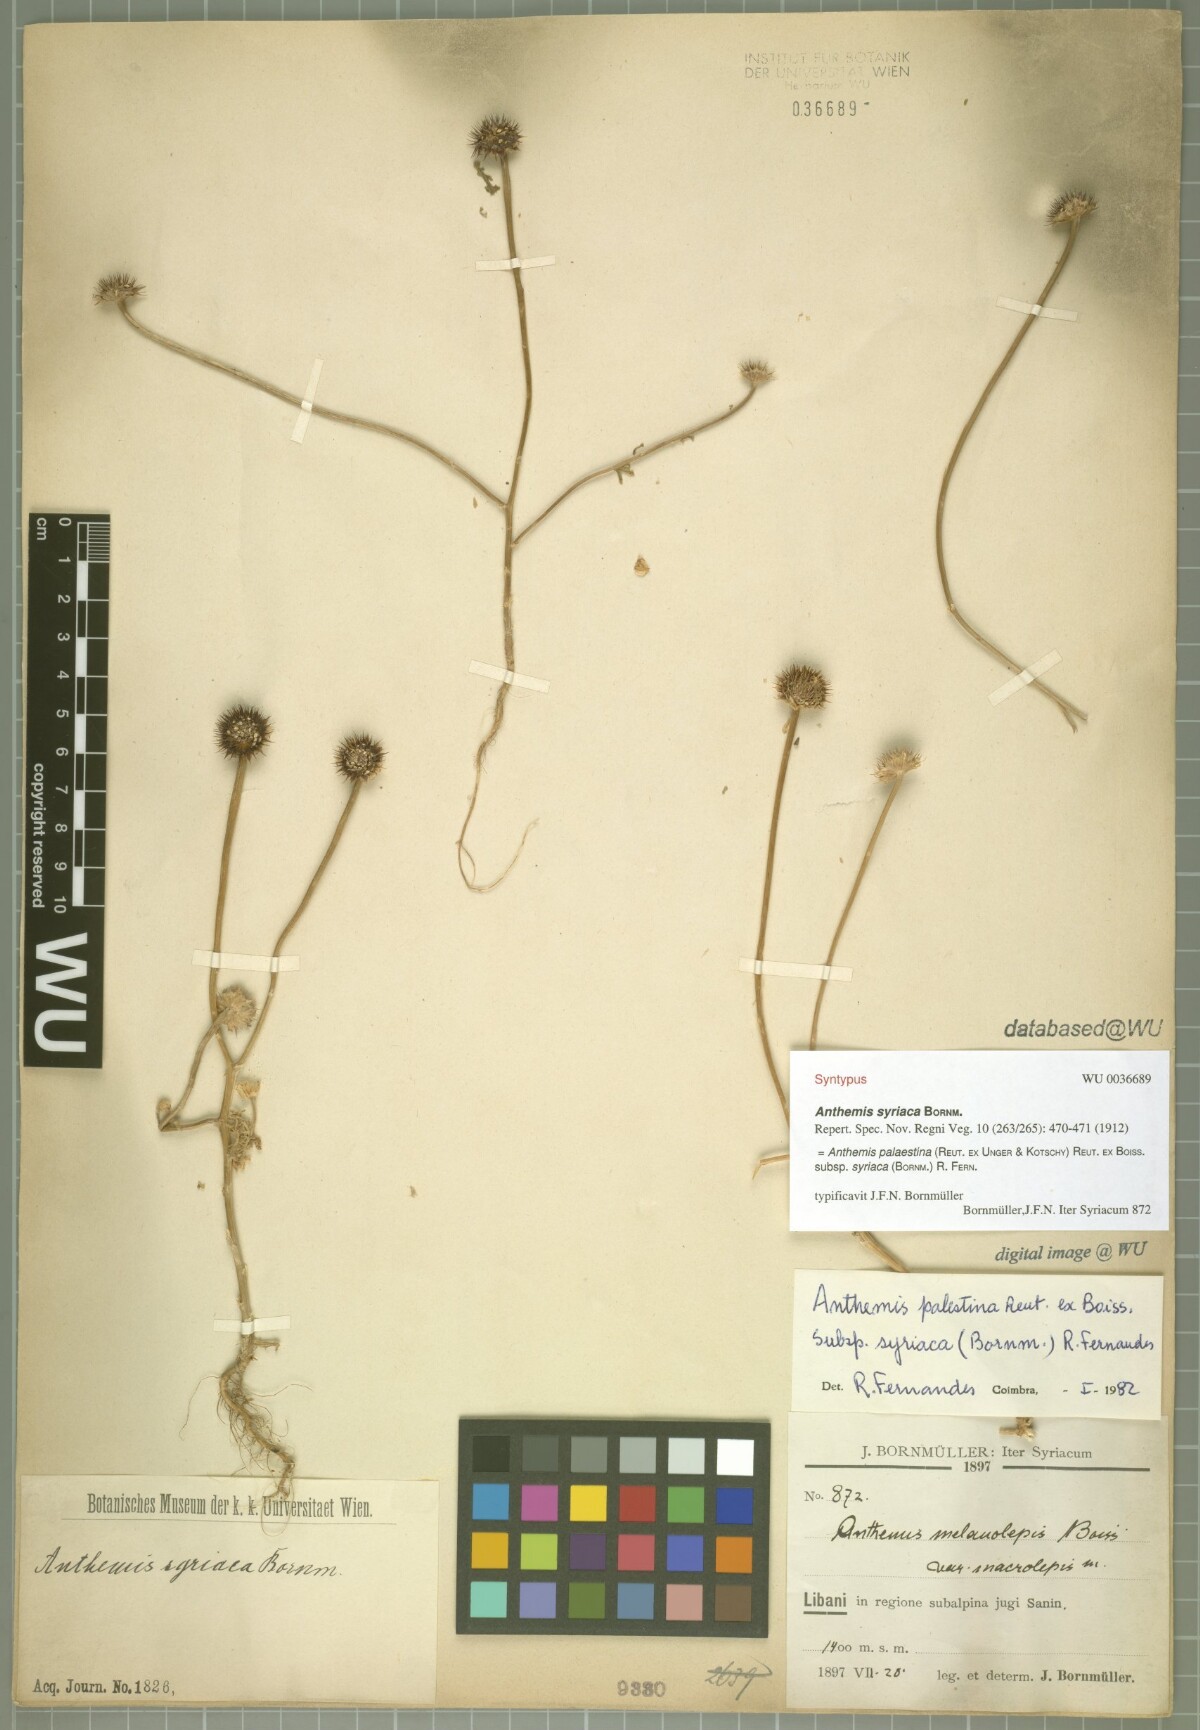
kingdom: Plantae
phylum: Tracheophyta
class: Magnoliopsida
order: Asterales
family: Asteraceae
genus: Cota
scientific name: Cota palaestina
